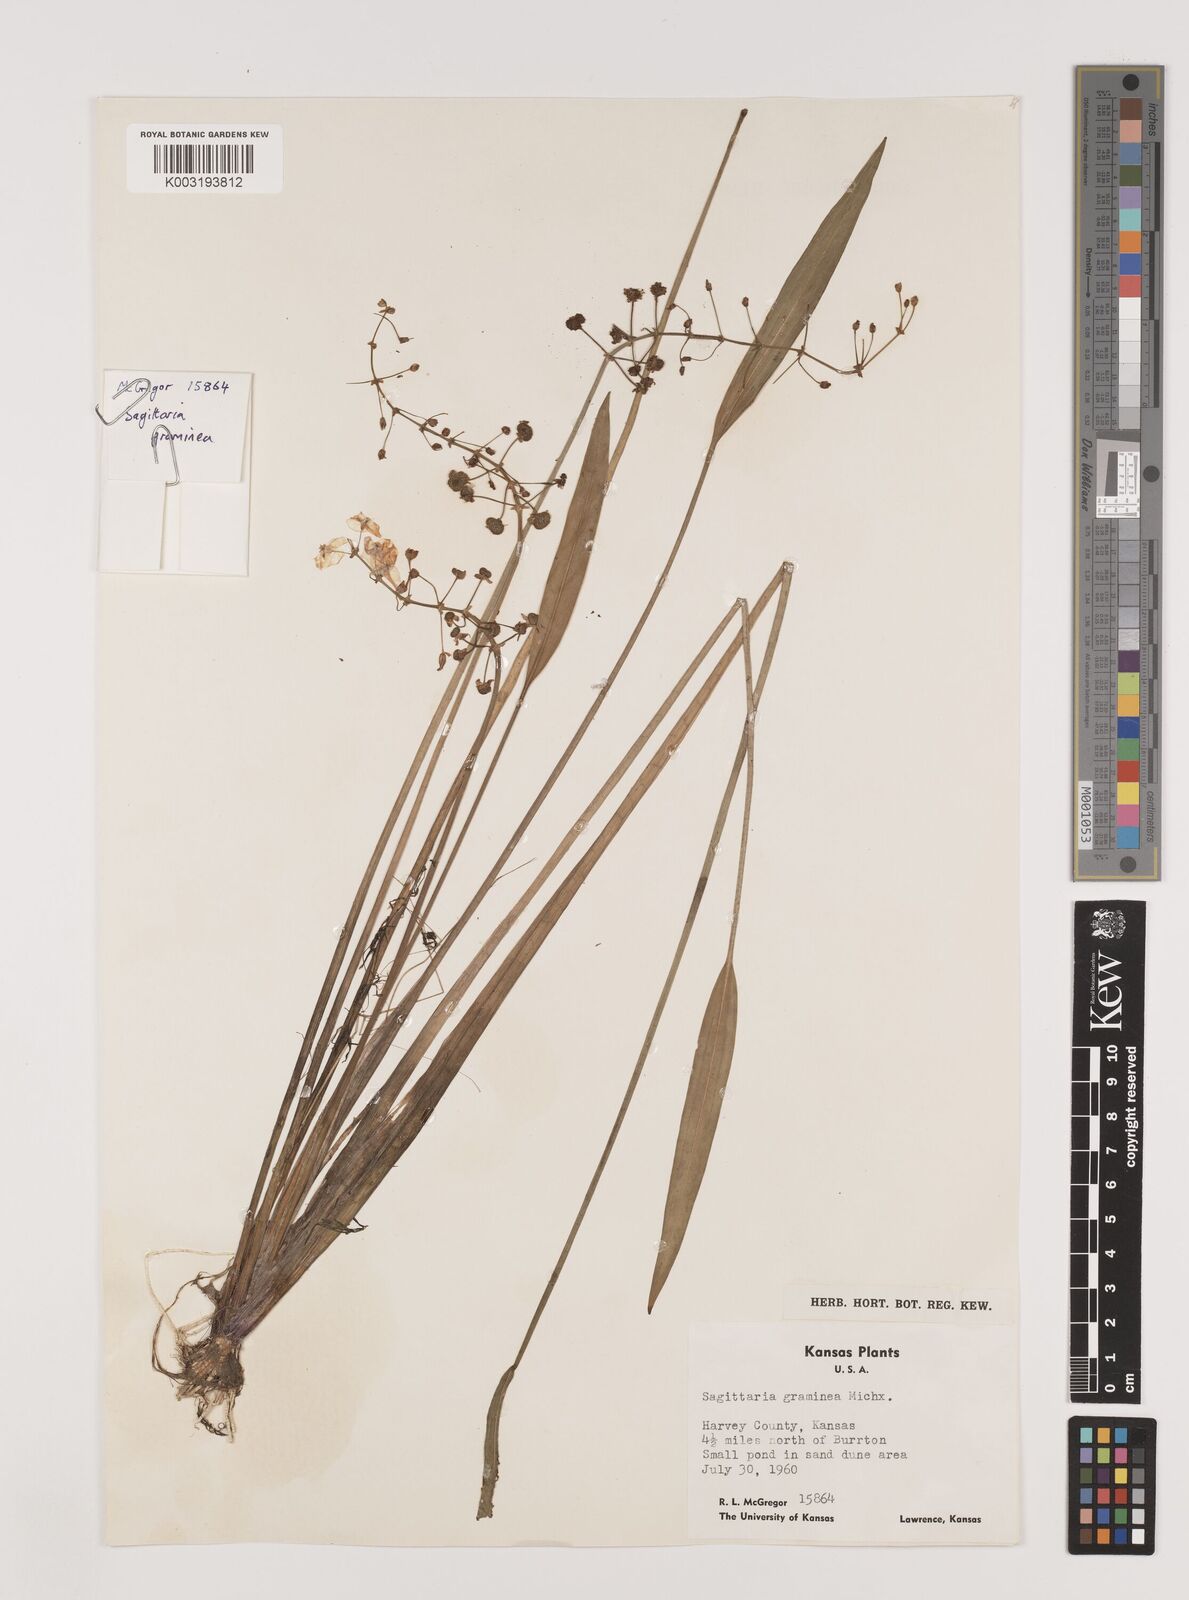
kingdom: Plantae
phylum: Tracheophyta
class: Liliopsida
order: Alismatales
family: Alismataceae
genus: Sagittaria
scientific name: Sagittaria graminea
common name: Grass-leaved arrowhead
